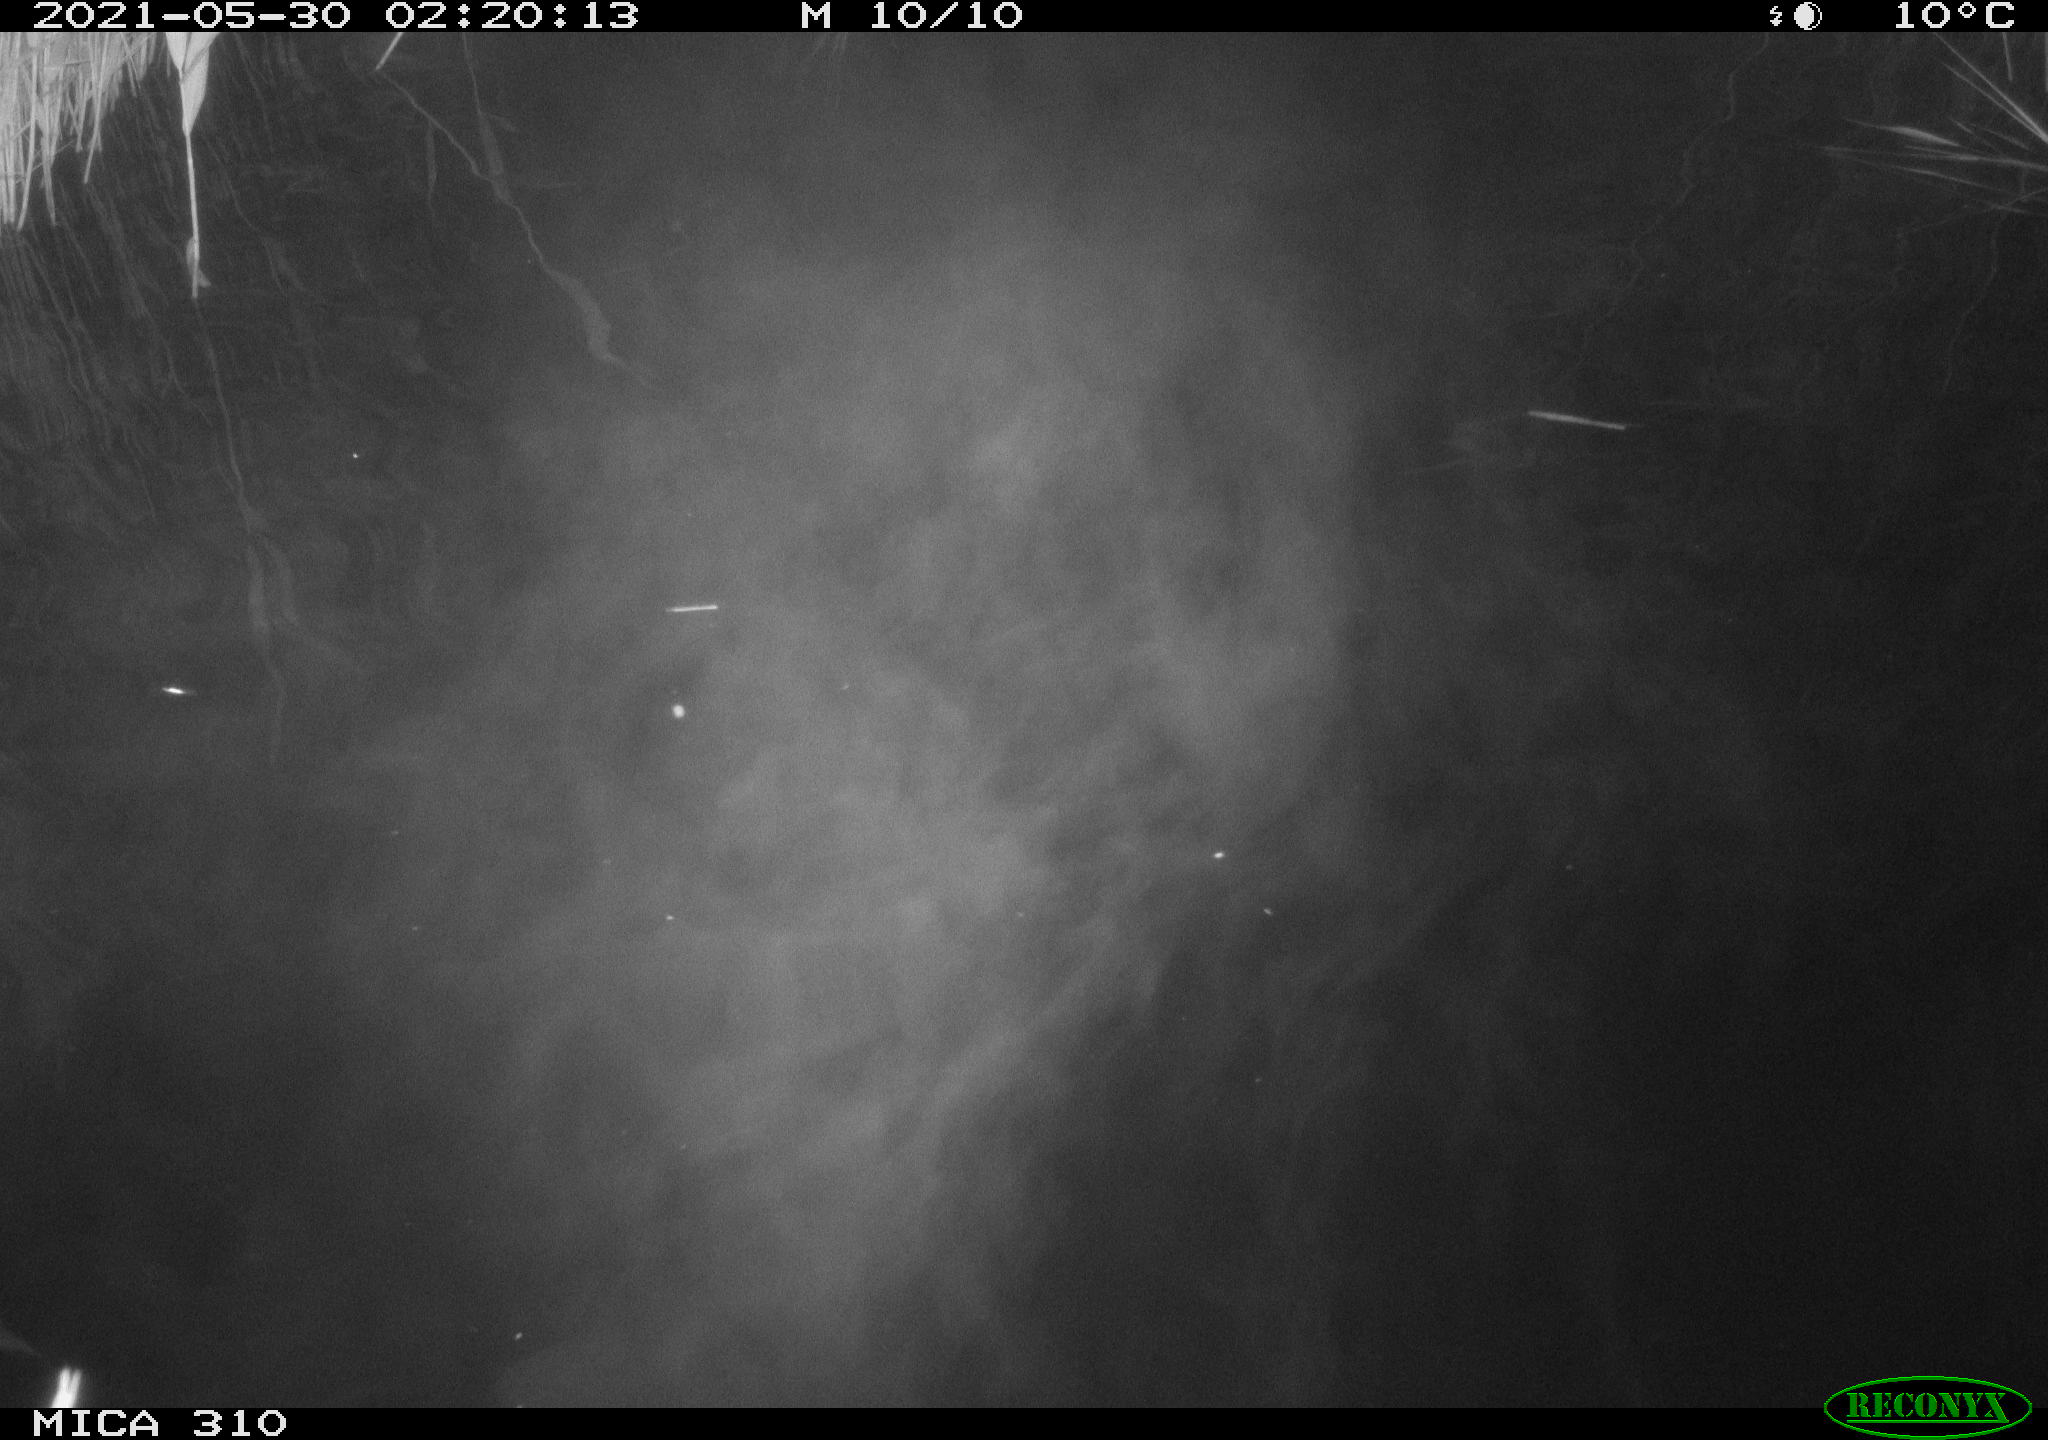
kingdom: Animalia
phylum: Chordata
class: Mammalia
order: Rodentia
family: Cricetidae
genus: Ondatra
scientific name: Ondatra zibethicus
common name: Muskrat
